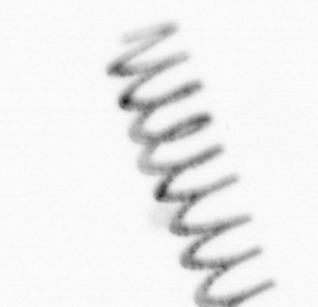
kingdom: Chromista
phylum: Ochrophyta
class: Bacillariophyceae
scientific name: Bacillariophyceae
